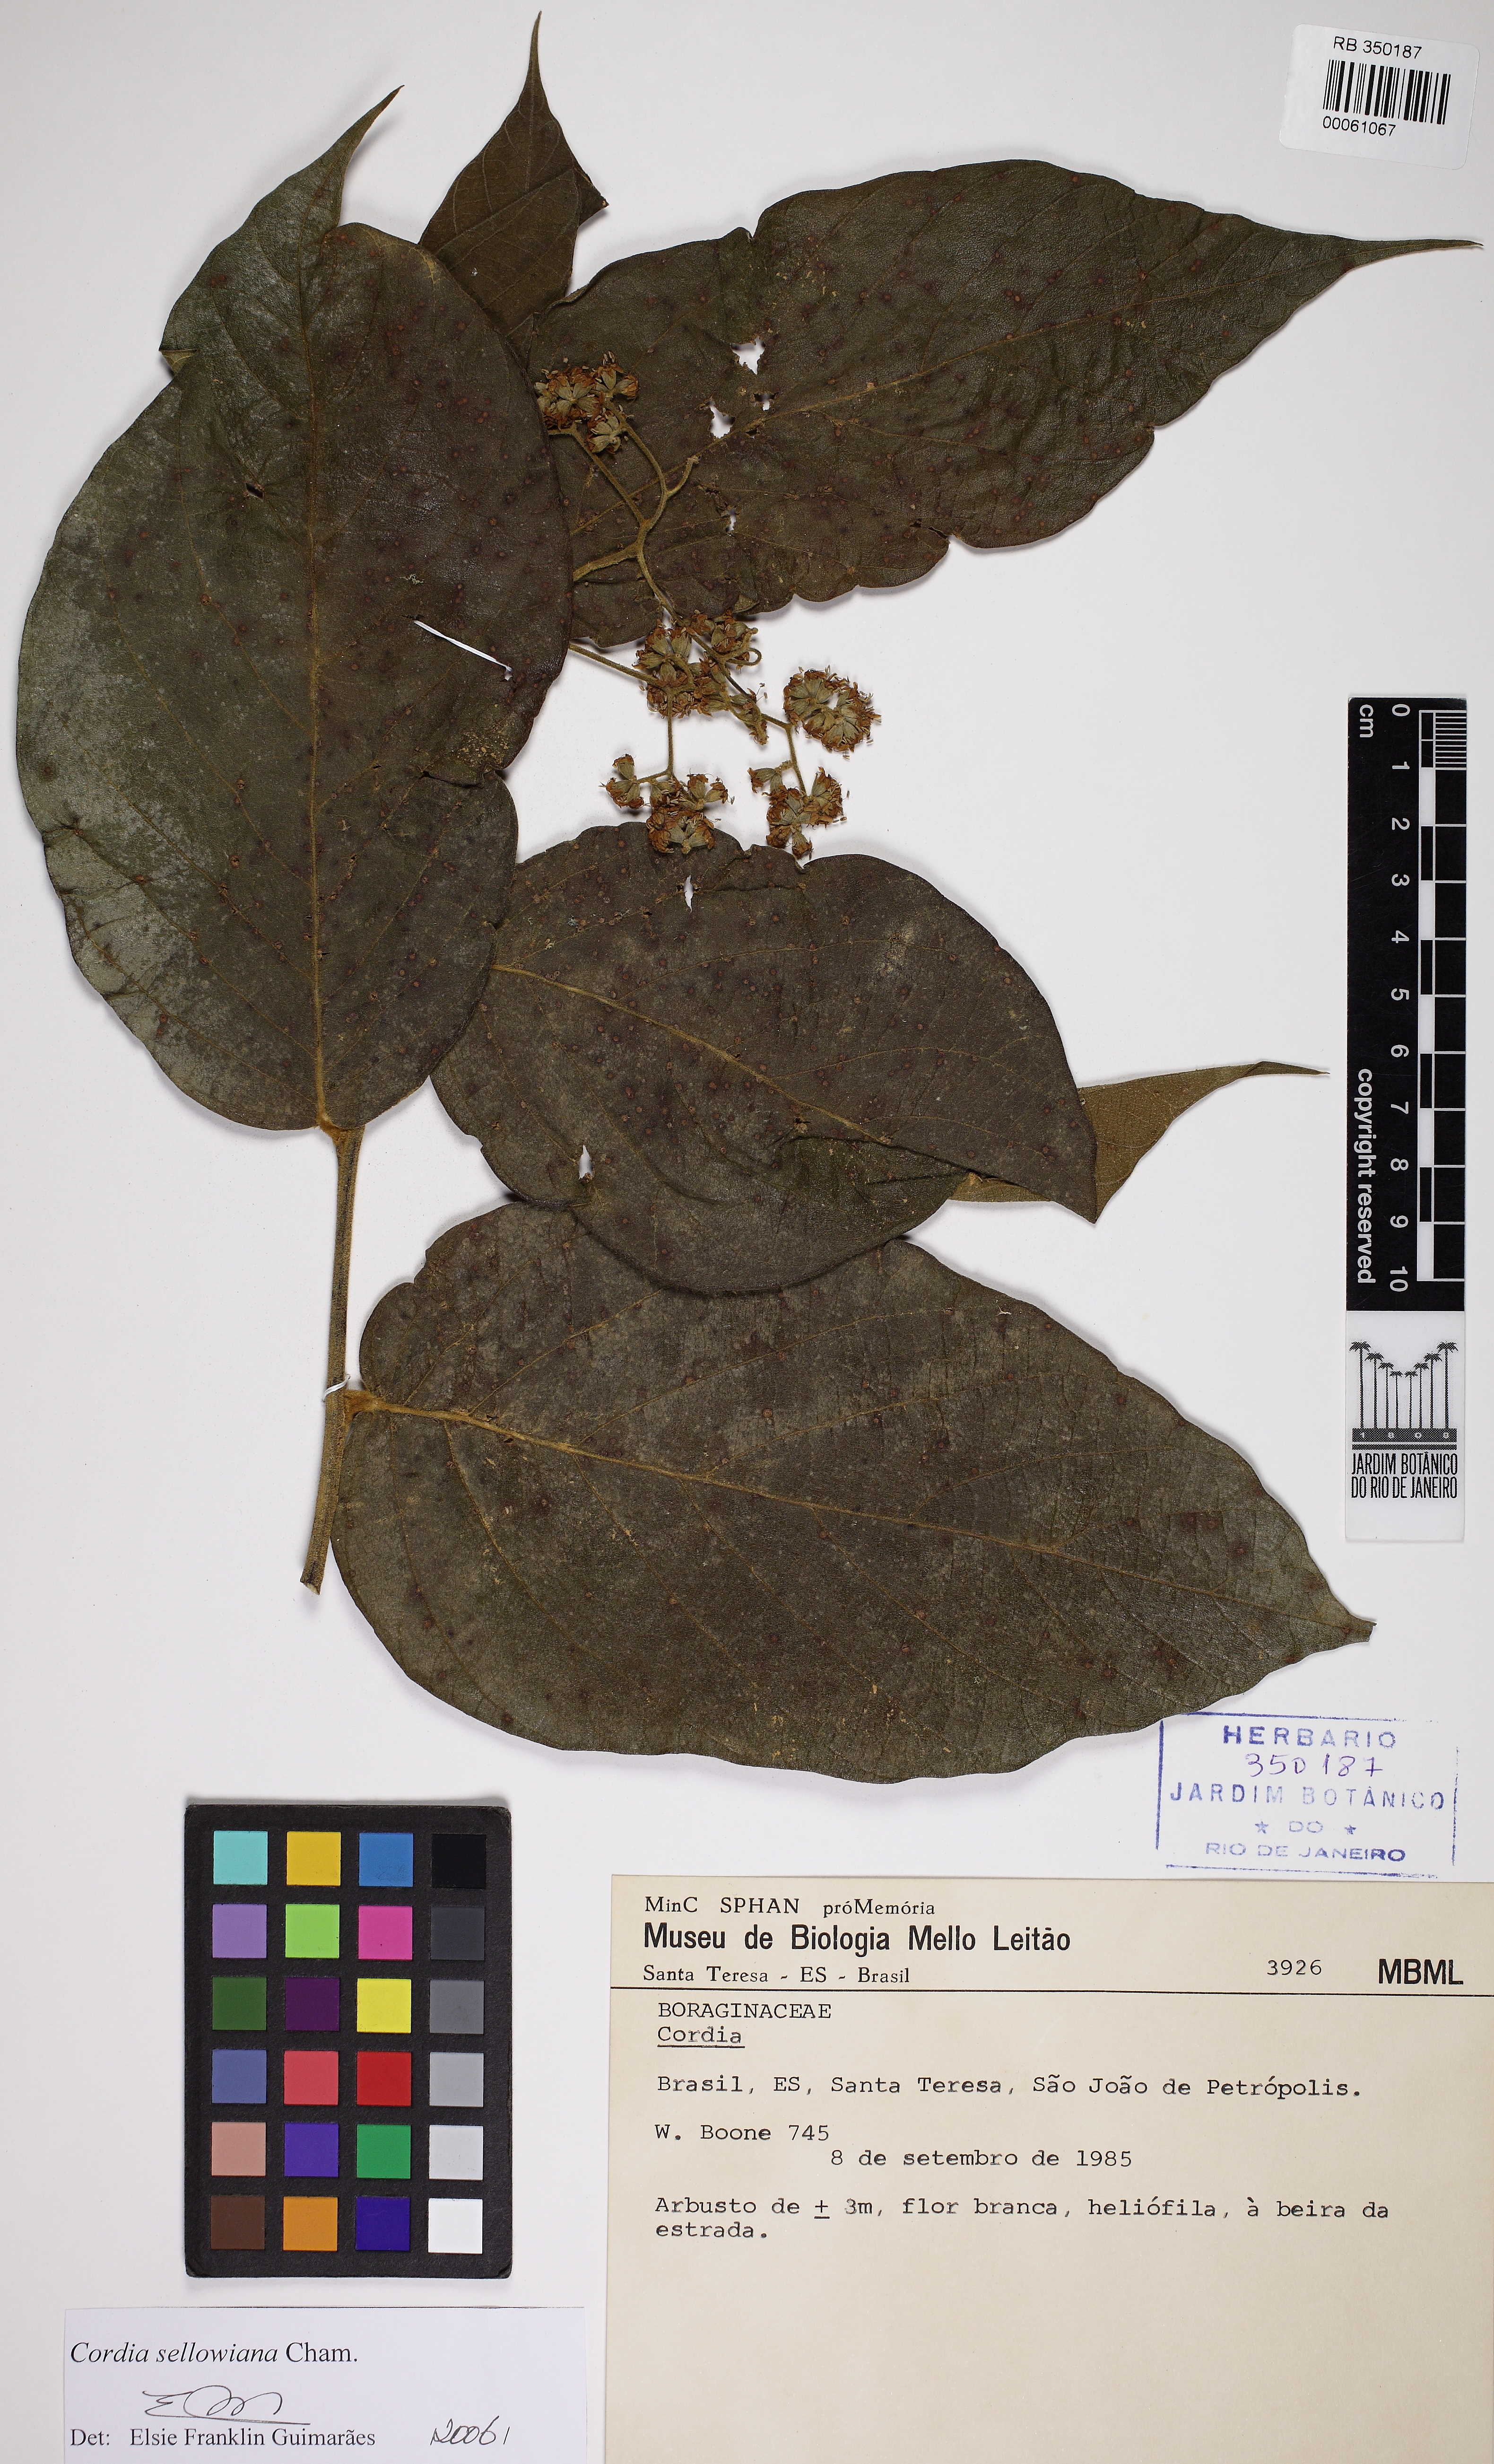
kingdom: Plantae
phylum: Tracheophyta
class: Magnoliopsida
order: Boraginales
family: Cordiaceae
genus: Cordia
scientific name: Cordia sellowiana
